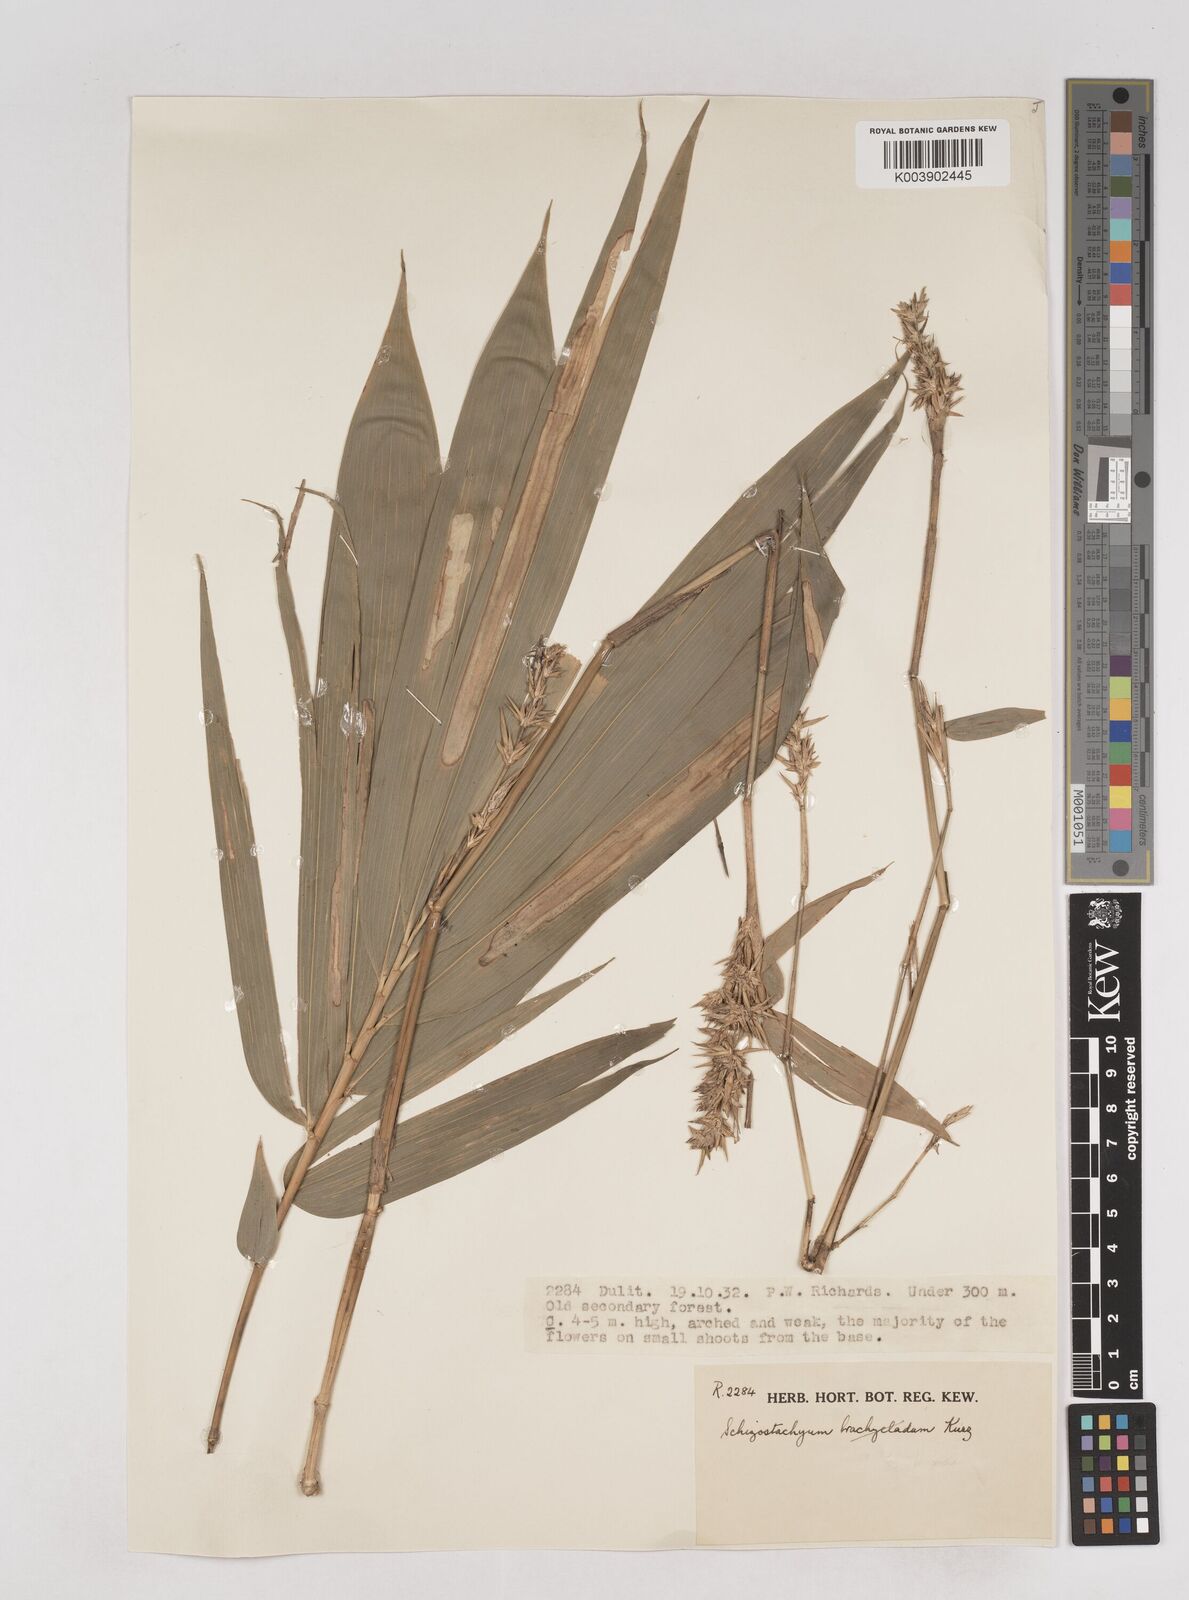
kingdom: Plantae
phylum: Tracheophyta
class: Liliopsida
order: Poales
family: Poaceae
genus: Schizostachyum
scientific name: Schizostachyum
